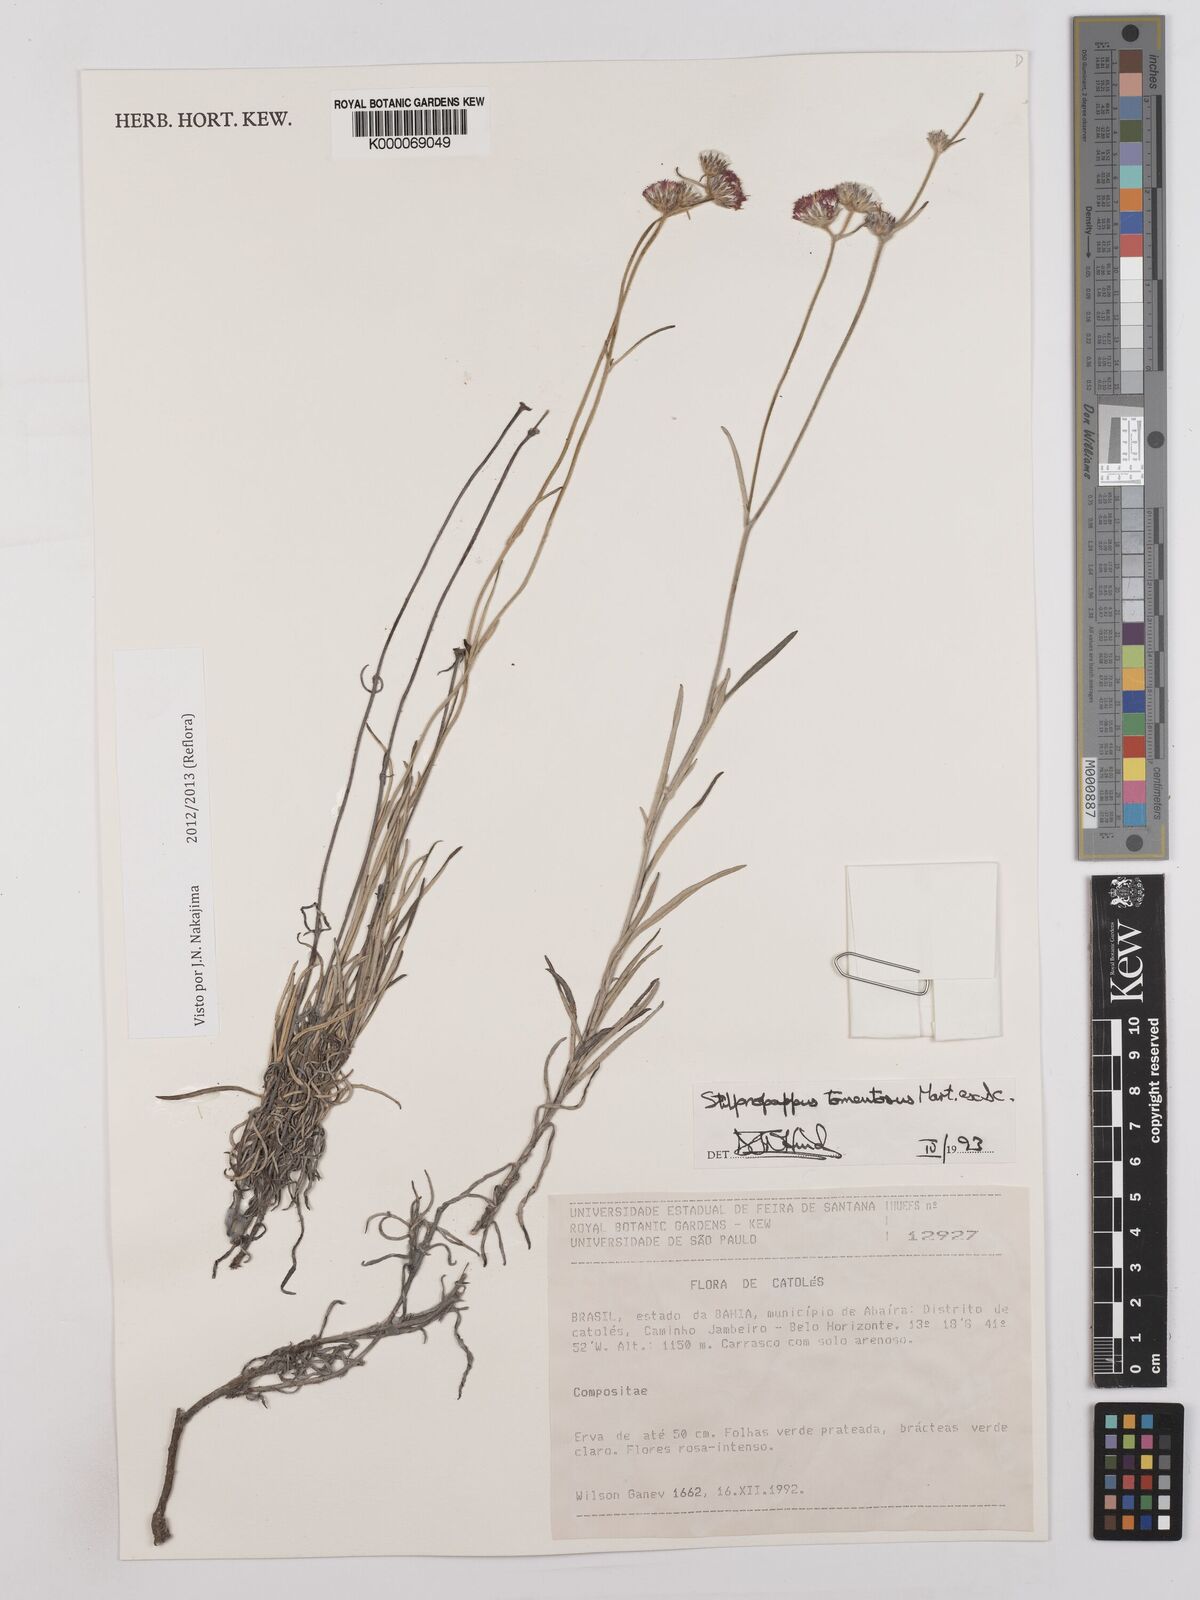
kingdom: Plantae
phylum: Tracheophyta
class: Magnoliopsida
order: Asterales
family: Asteraceae
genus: Stilpnopappus
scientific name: Stilpnopappus tomentosus
